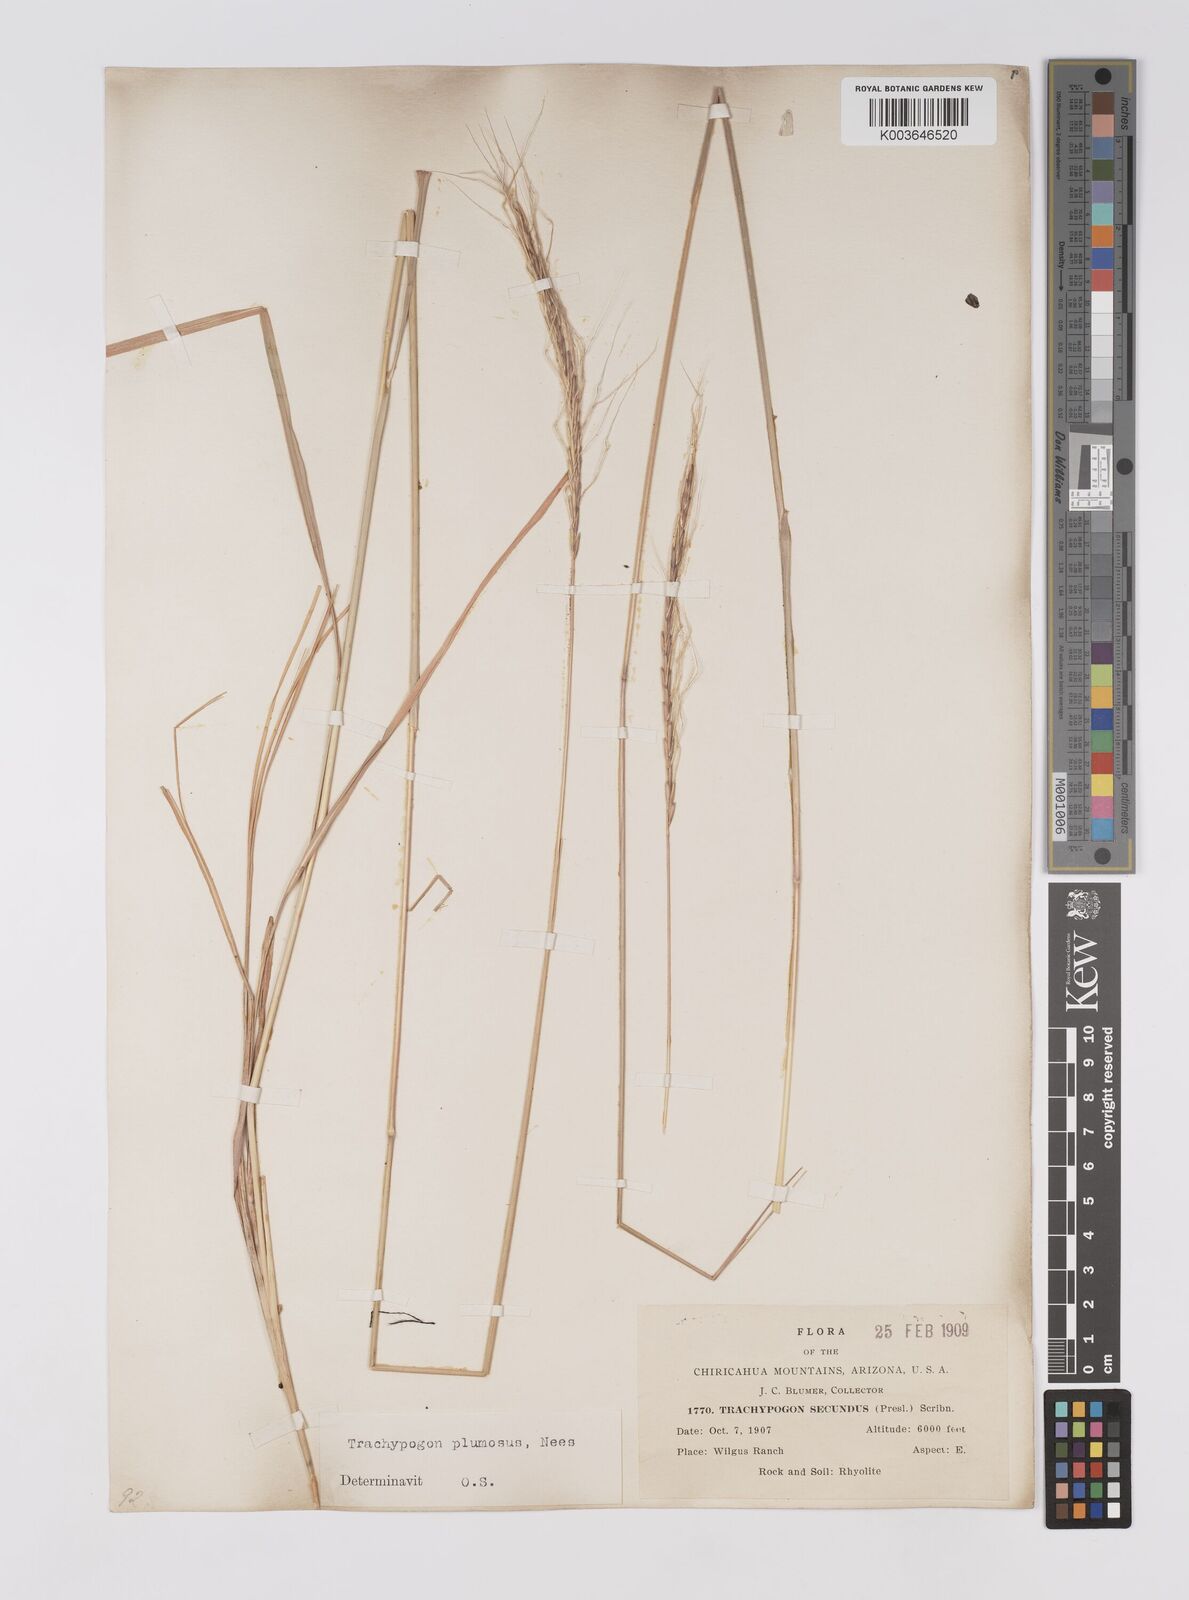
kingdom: Plantae
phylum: Tracheophyta
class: Liliopsida
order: Poales
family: Poaceae
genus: Trachypogon
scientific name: Trachypogon spicatus
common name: Crinkle-awn
